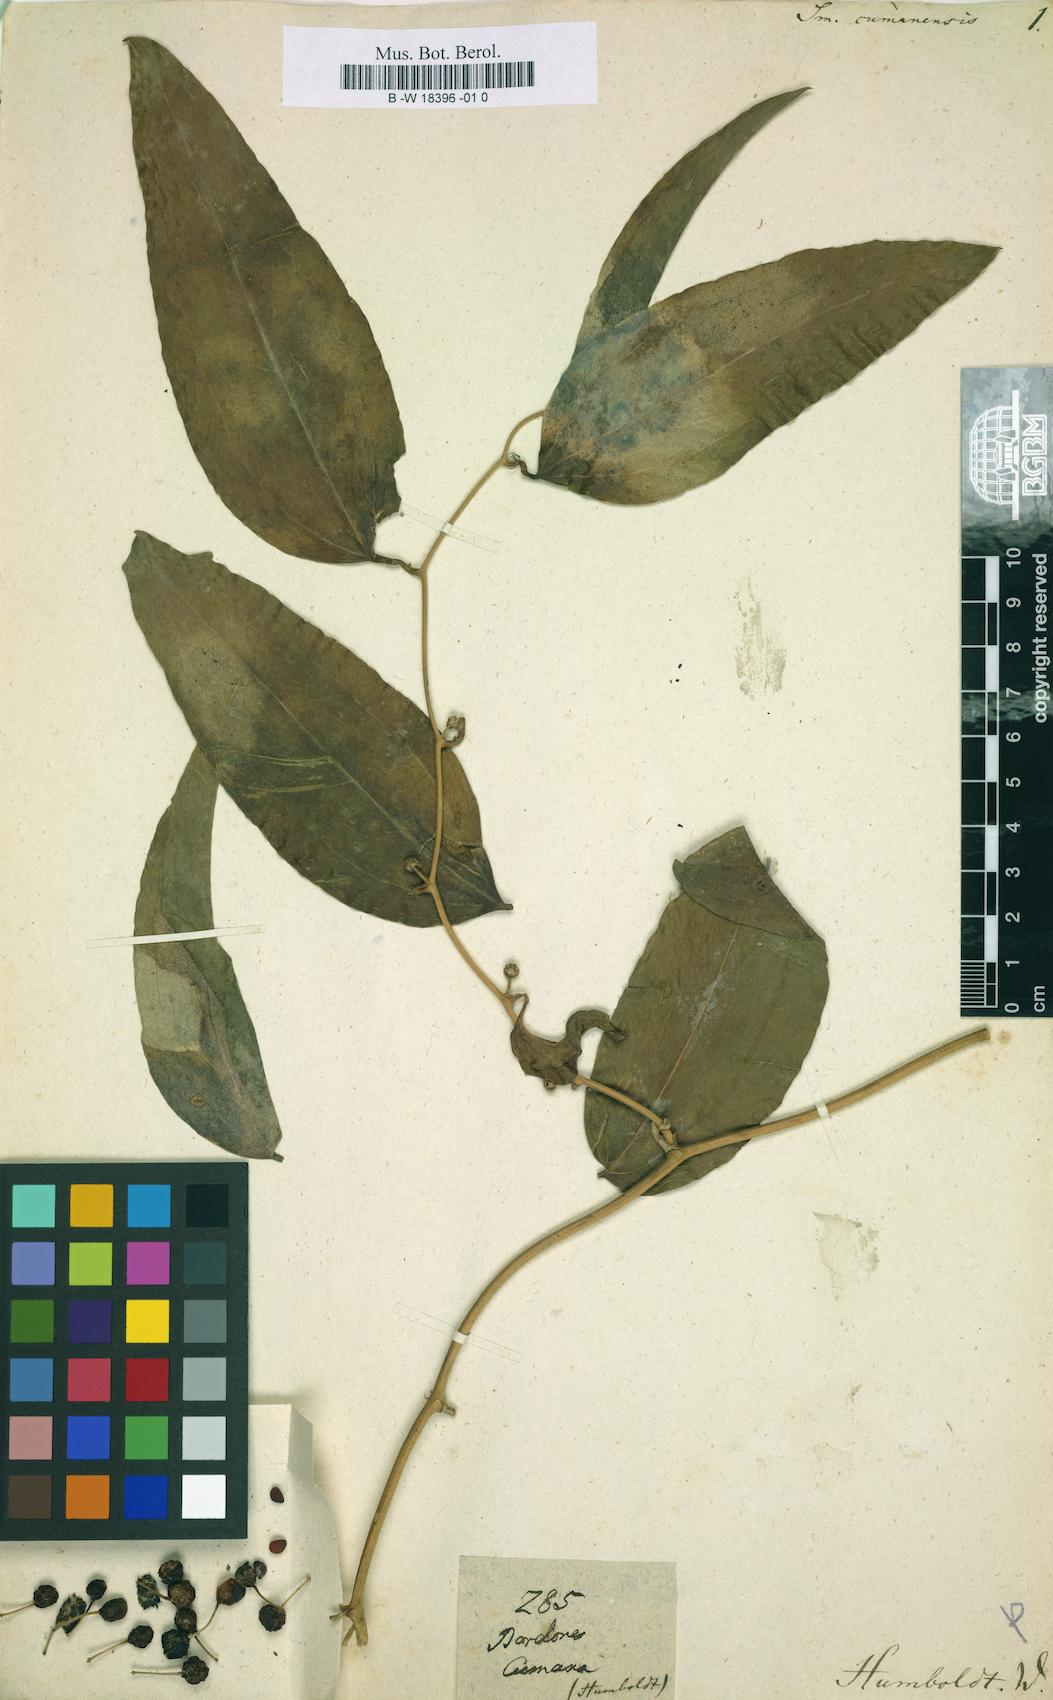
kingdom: Plantae
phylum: Tracheophyta
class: Liliopsida
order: Liliales
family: Smilacaceae
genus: Smilax
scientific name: Smilax oblongata
